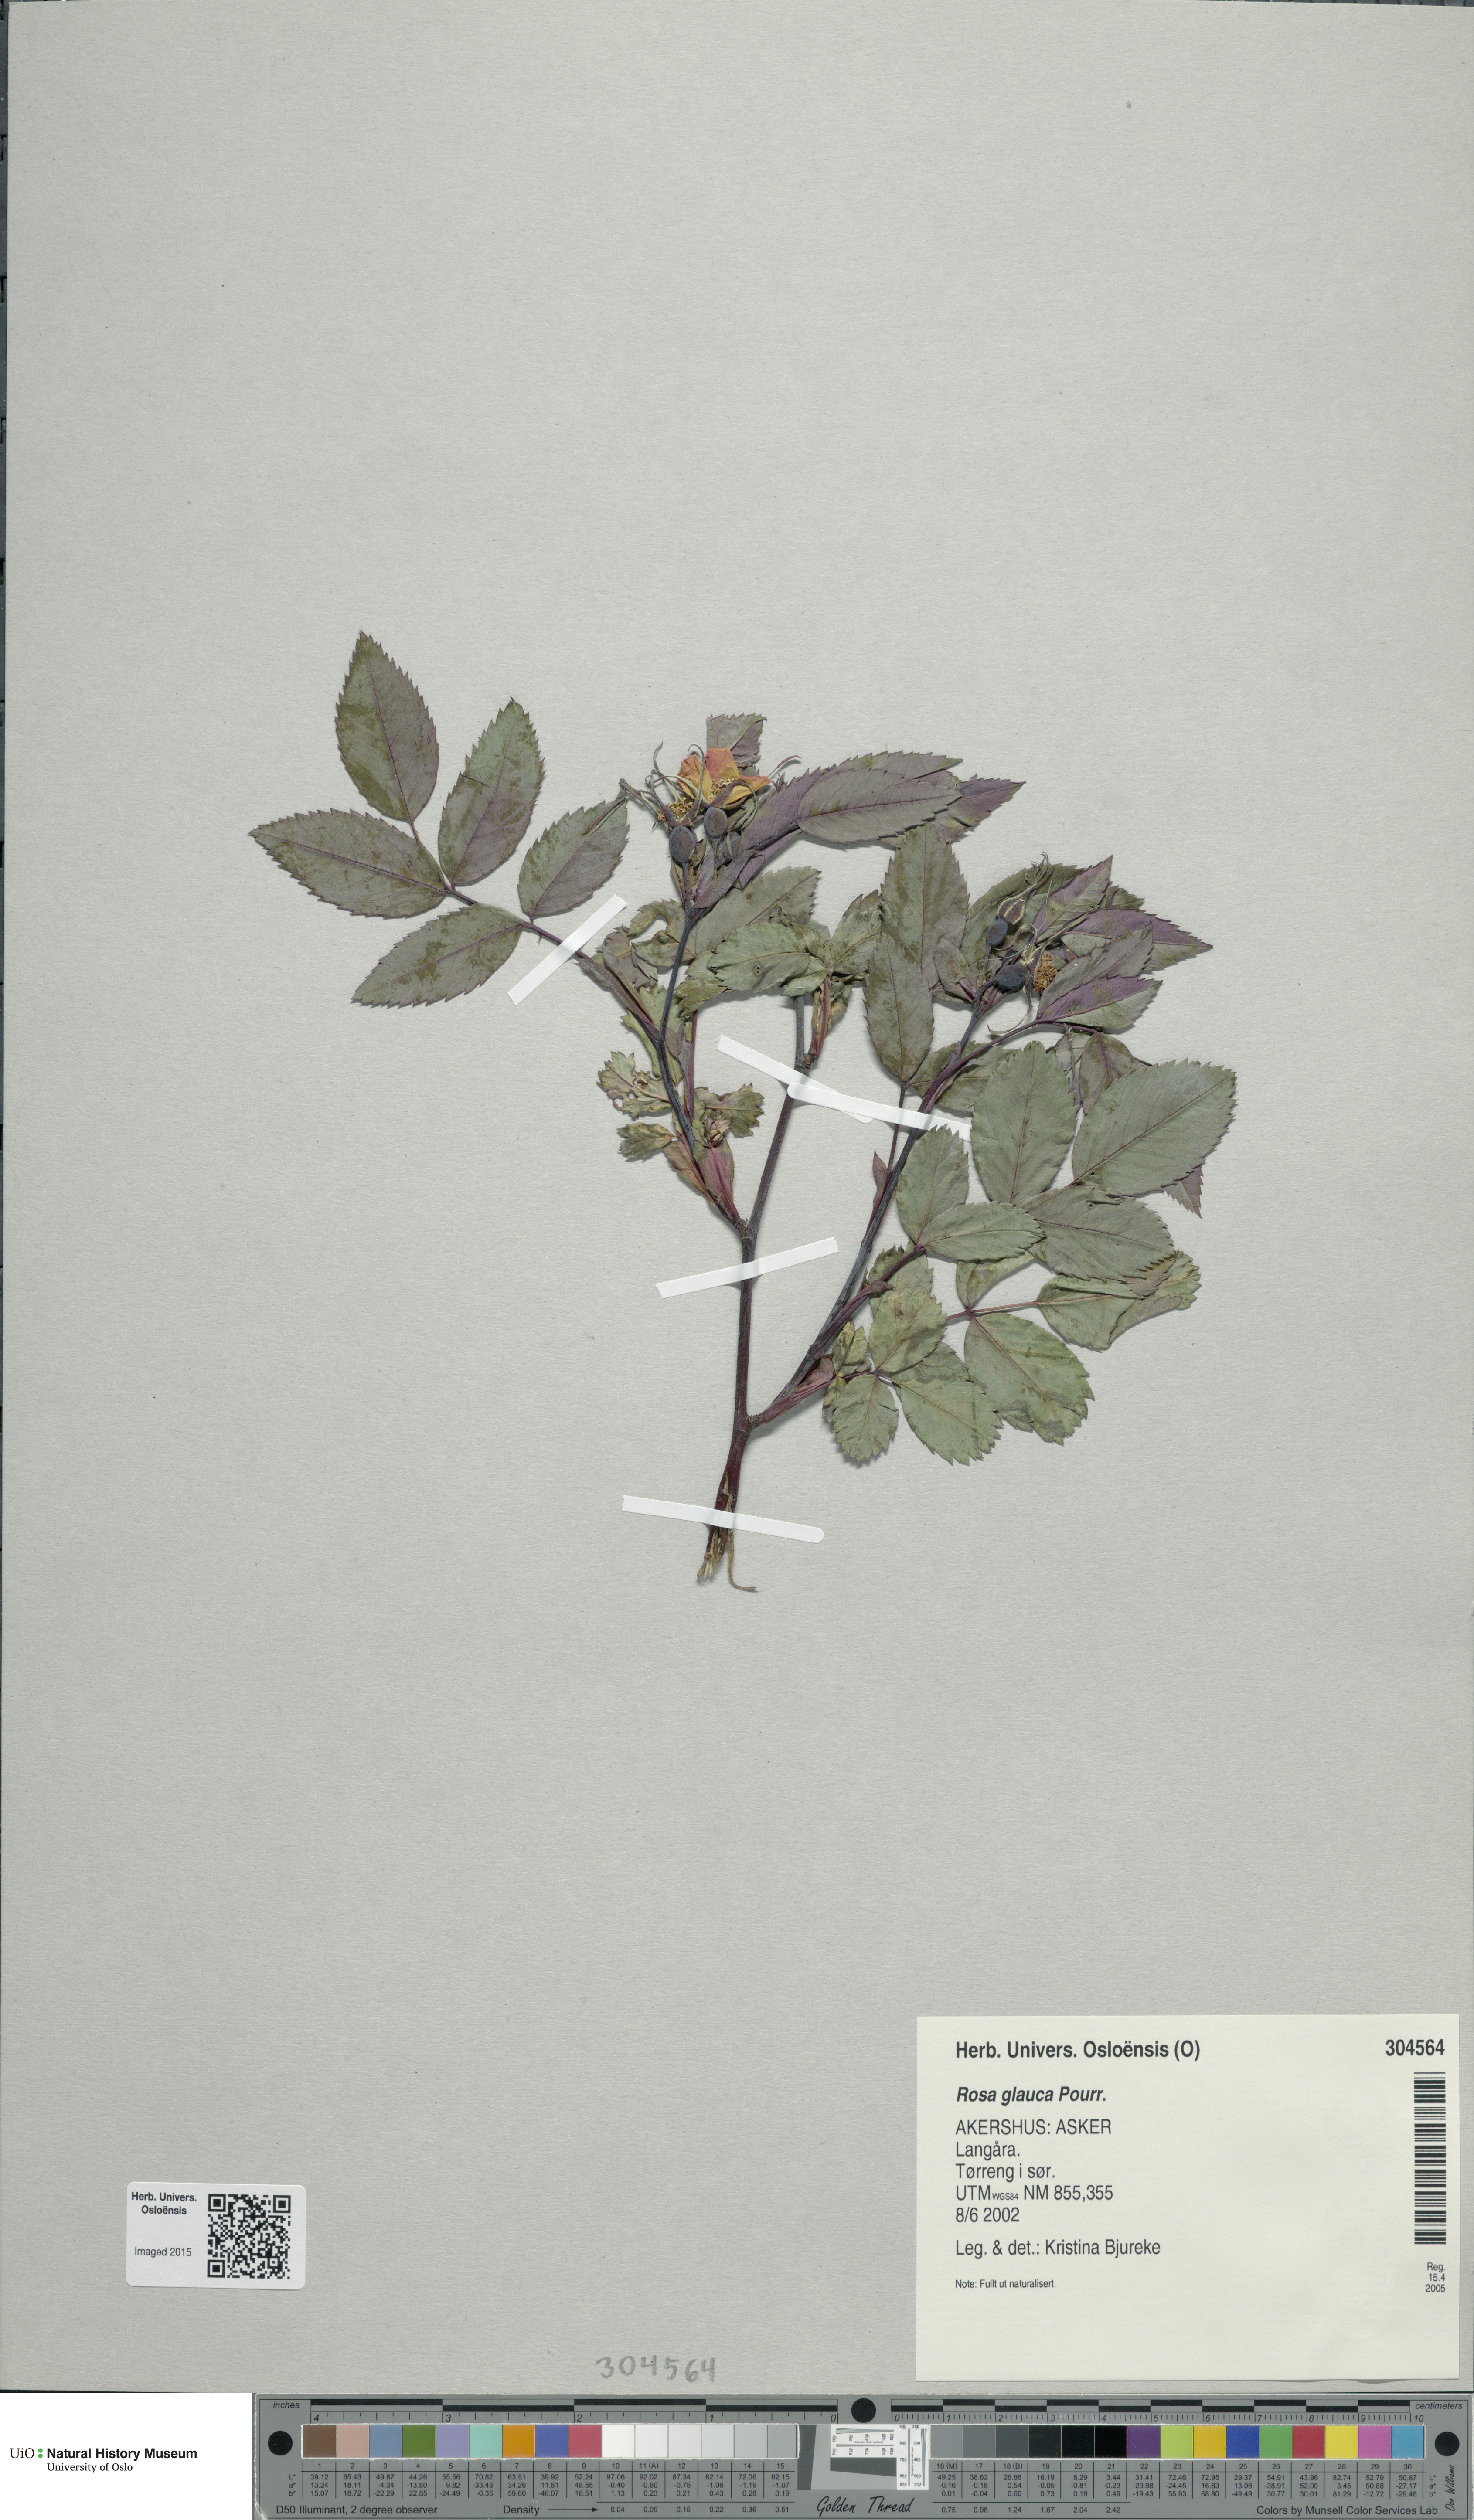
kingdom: Plantae
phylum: Tracheophyta
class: Magnoliopsida
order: Rosales
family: Rosaceae
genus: Rosa
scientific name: Rosa glauca
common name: Redleaf rose
